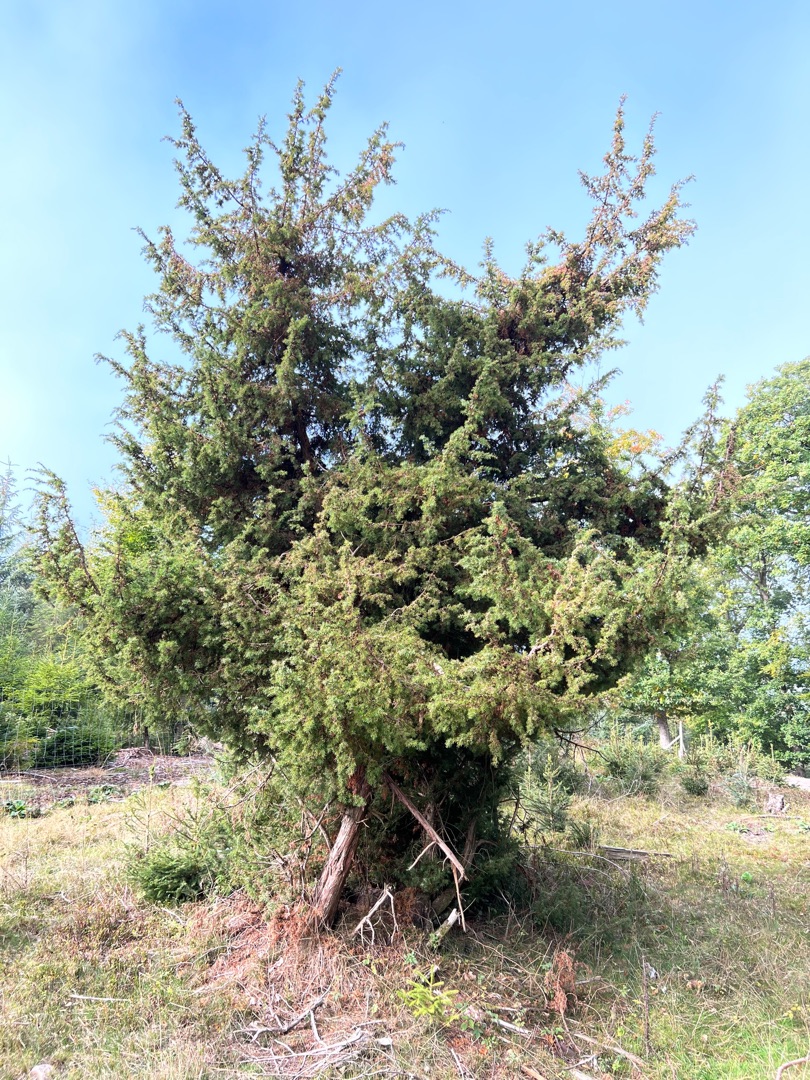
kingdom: Plantae
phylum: Tracheophyta
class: Pinopsida
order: Pinales
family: Cupressaceae
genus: Juniperus
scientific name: Juniperus communis
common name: Almindelig ene
